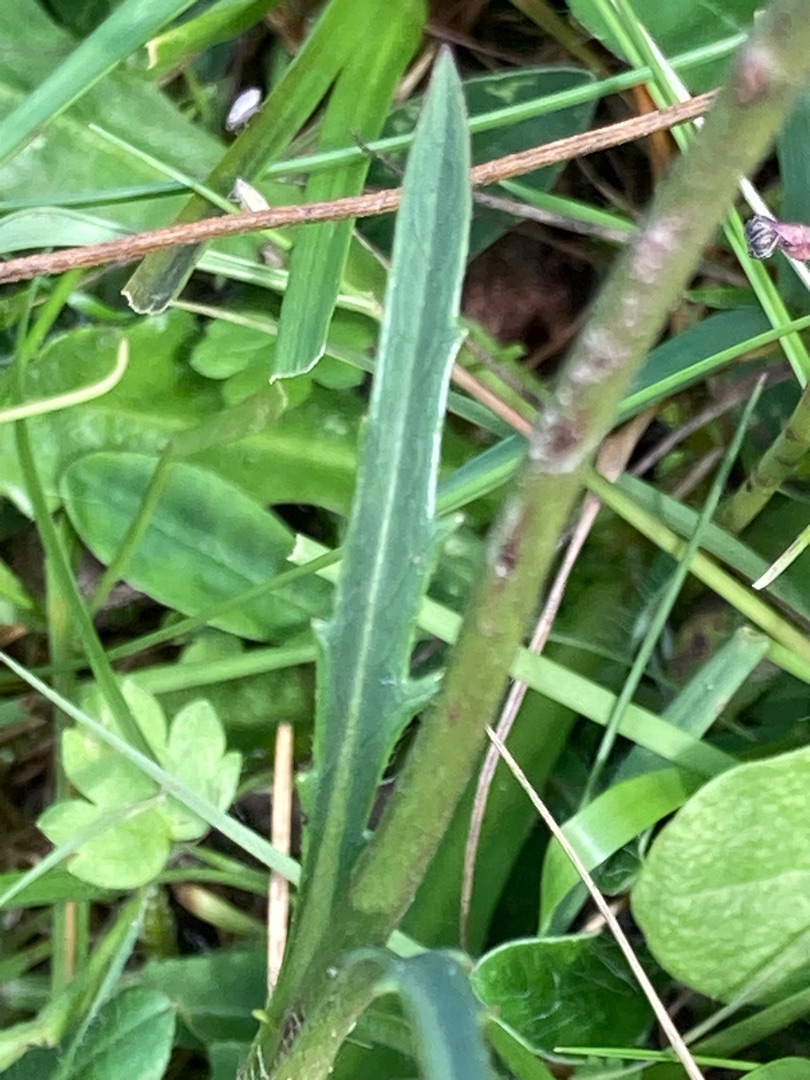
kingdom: Plantae
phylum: Tracheophyta
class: Magnoliopsida
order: Dipsacales
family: Caprifoliaceae
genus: Succisa
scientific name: Succisa pratensis
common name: Djævelsbid
